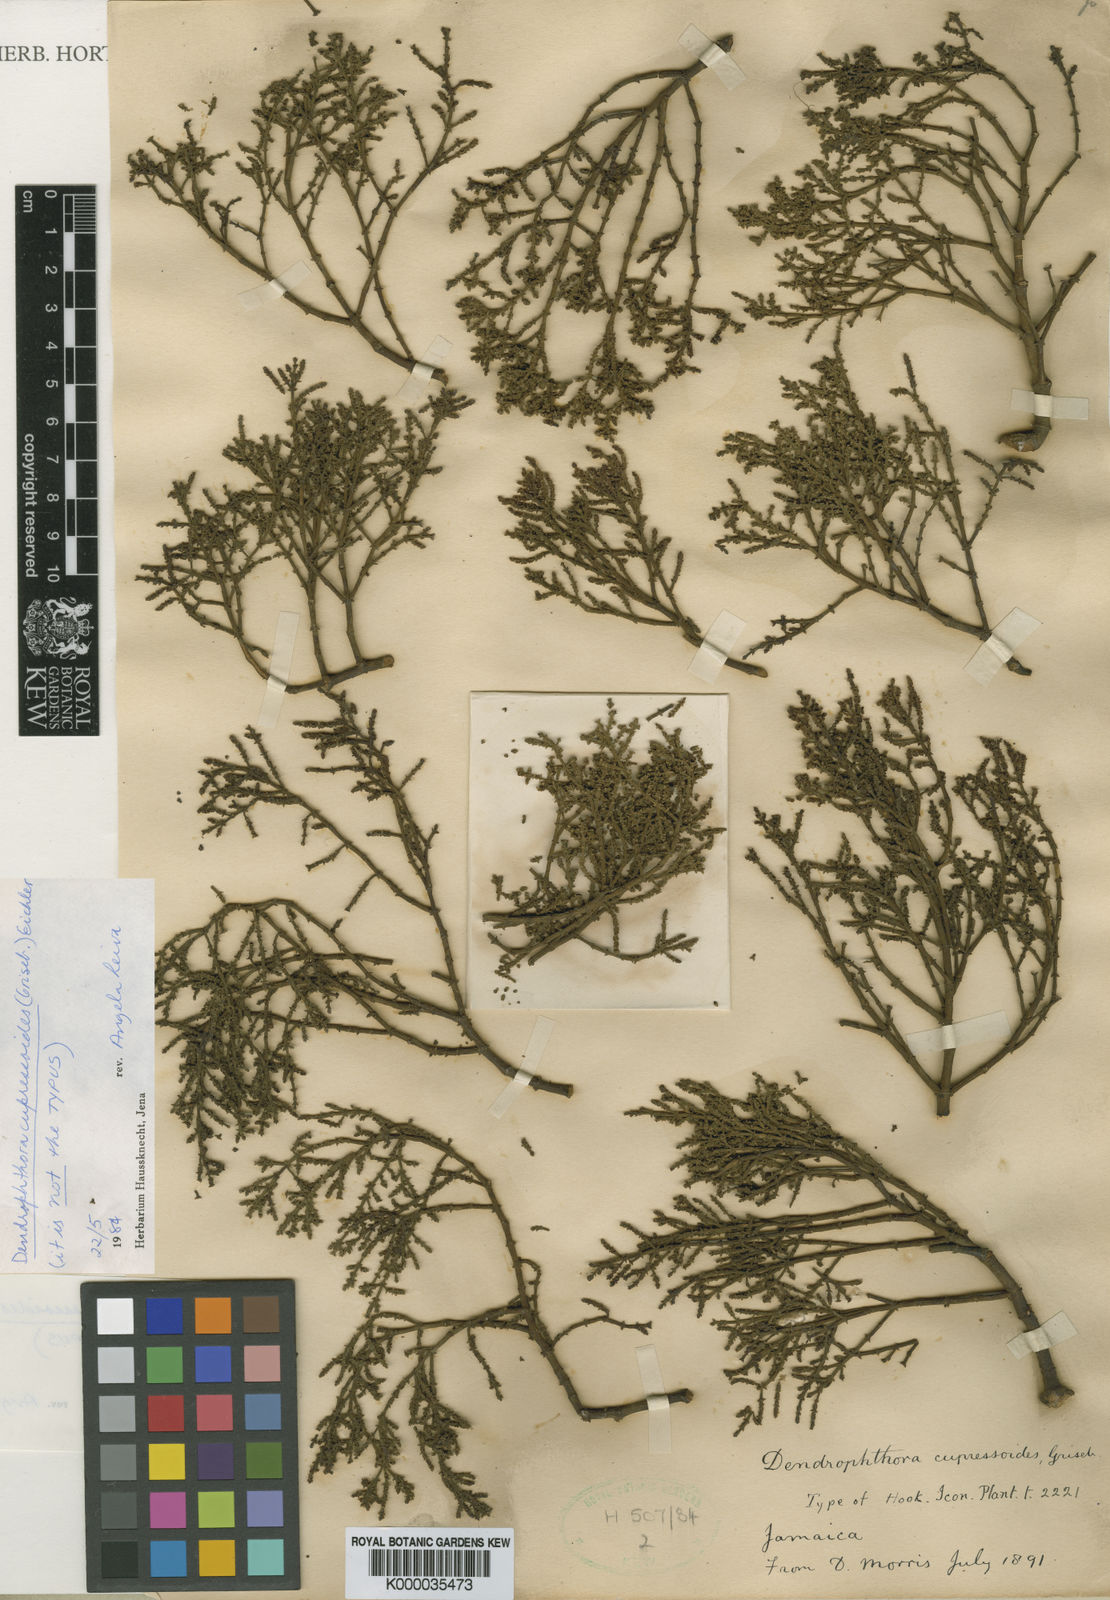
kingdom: Plantae
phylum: Tracheophyta
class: Magnoliopsida
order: Santalales
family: Viscaceae
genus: Dendrophthora
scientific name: Dendrophthora cupressoides
